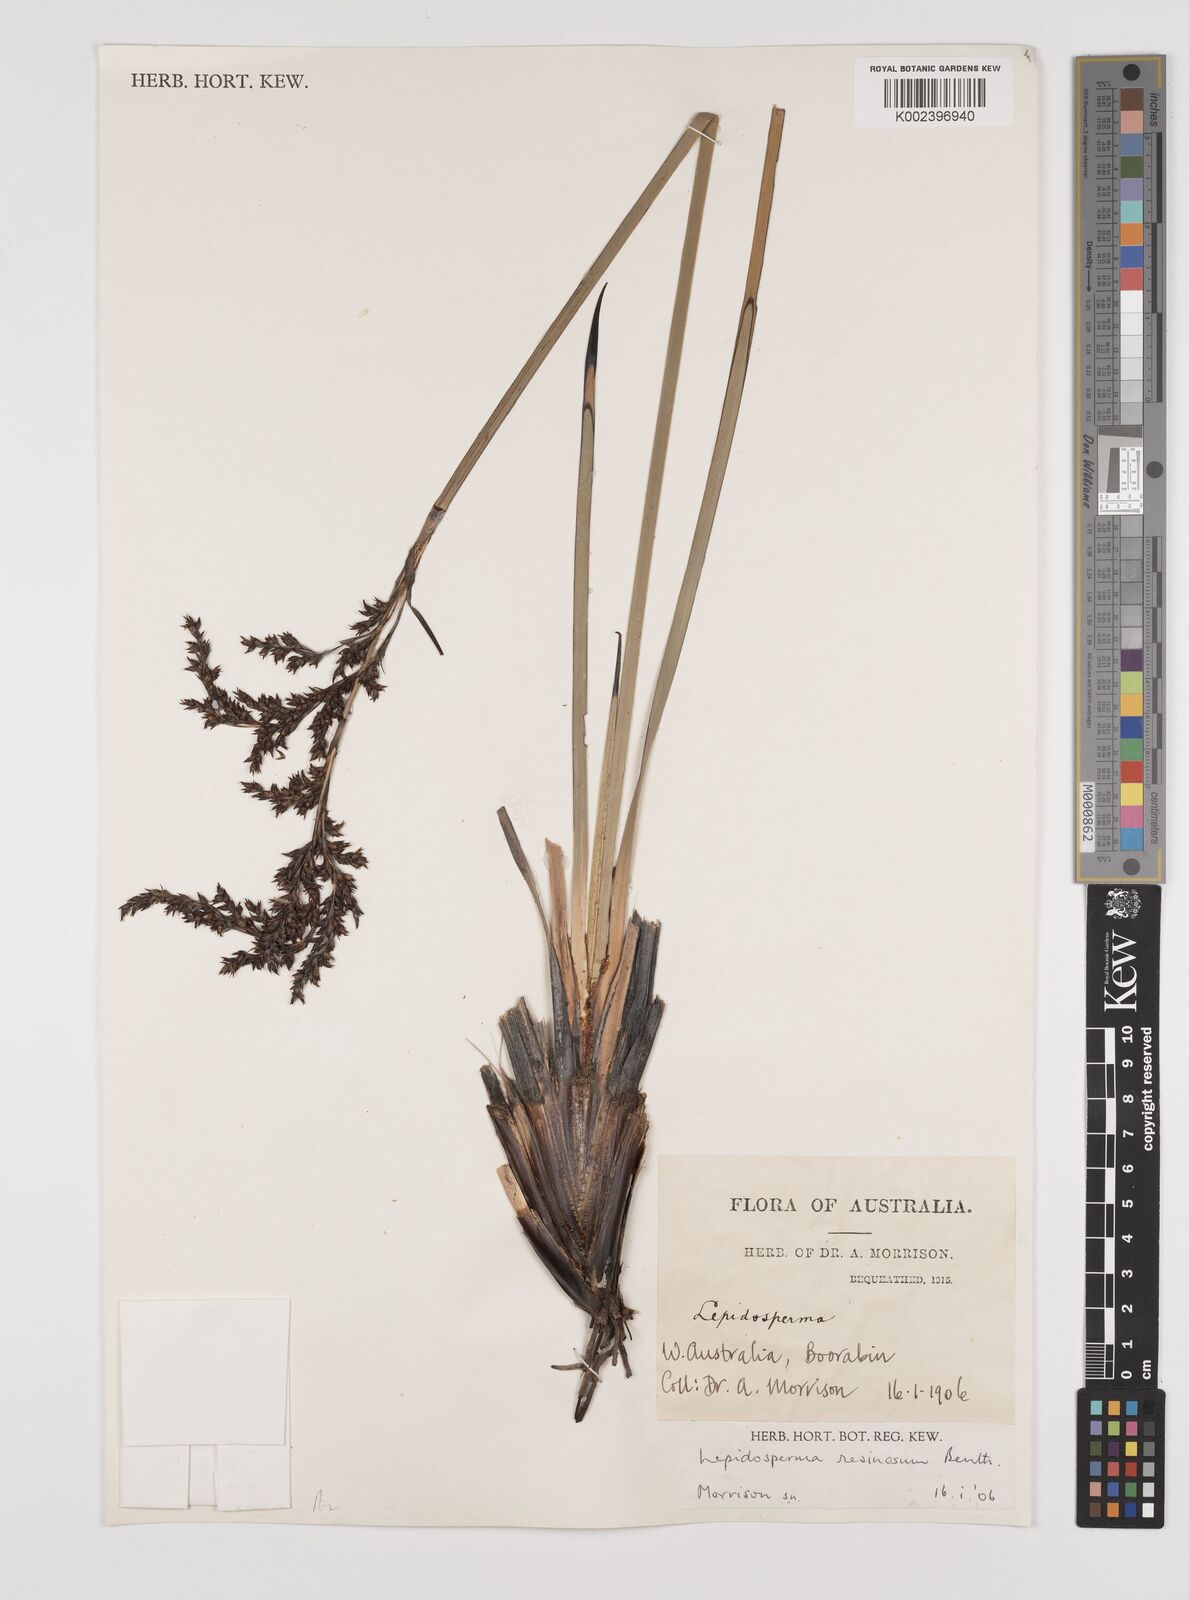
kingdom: Plantae
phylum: Tracheophyta
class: Liliopsida
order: Poales
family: Cyperaceae
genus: Lepidosperma
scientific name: Lepidosperma resinosum
